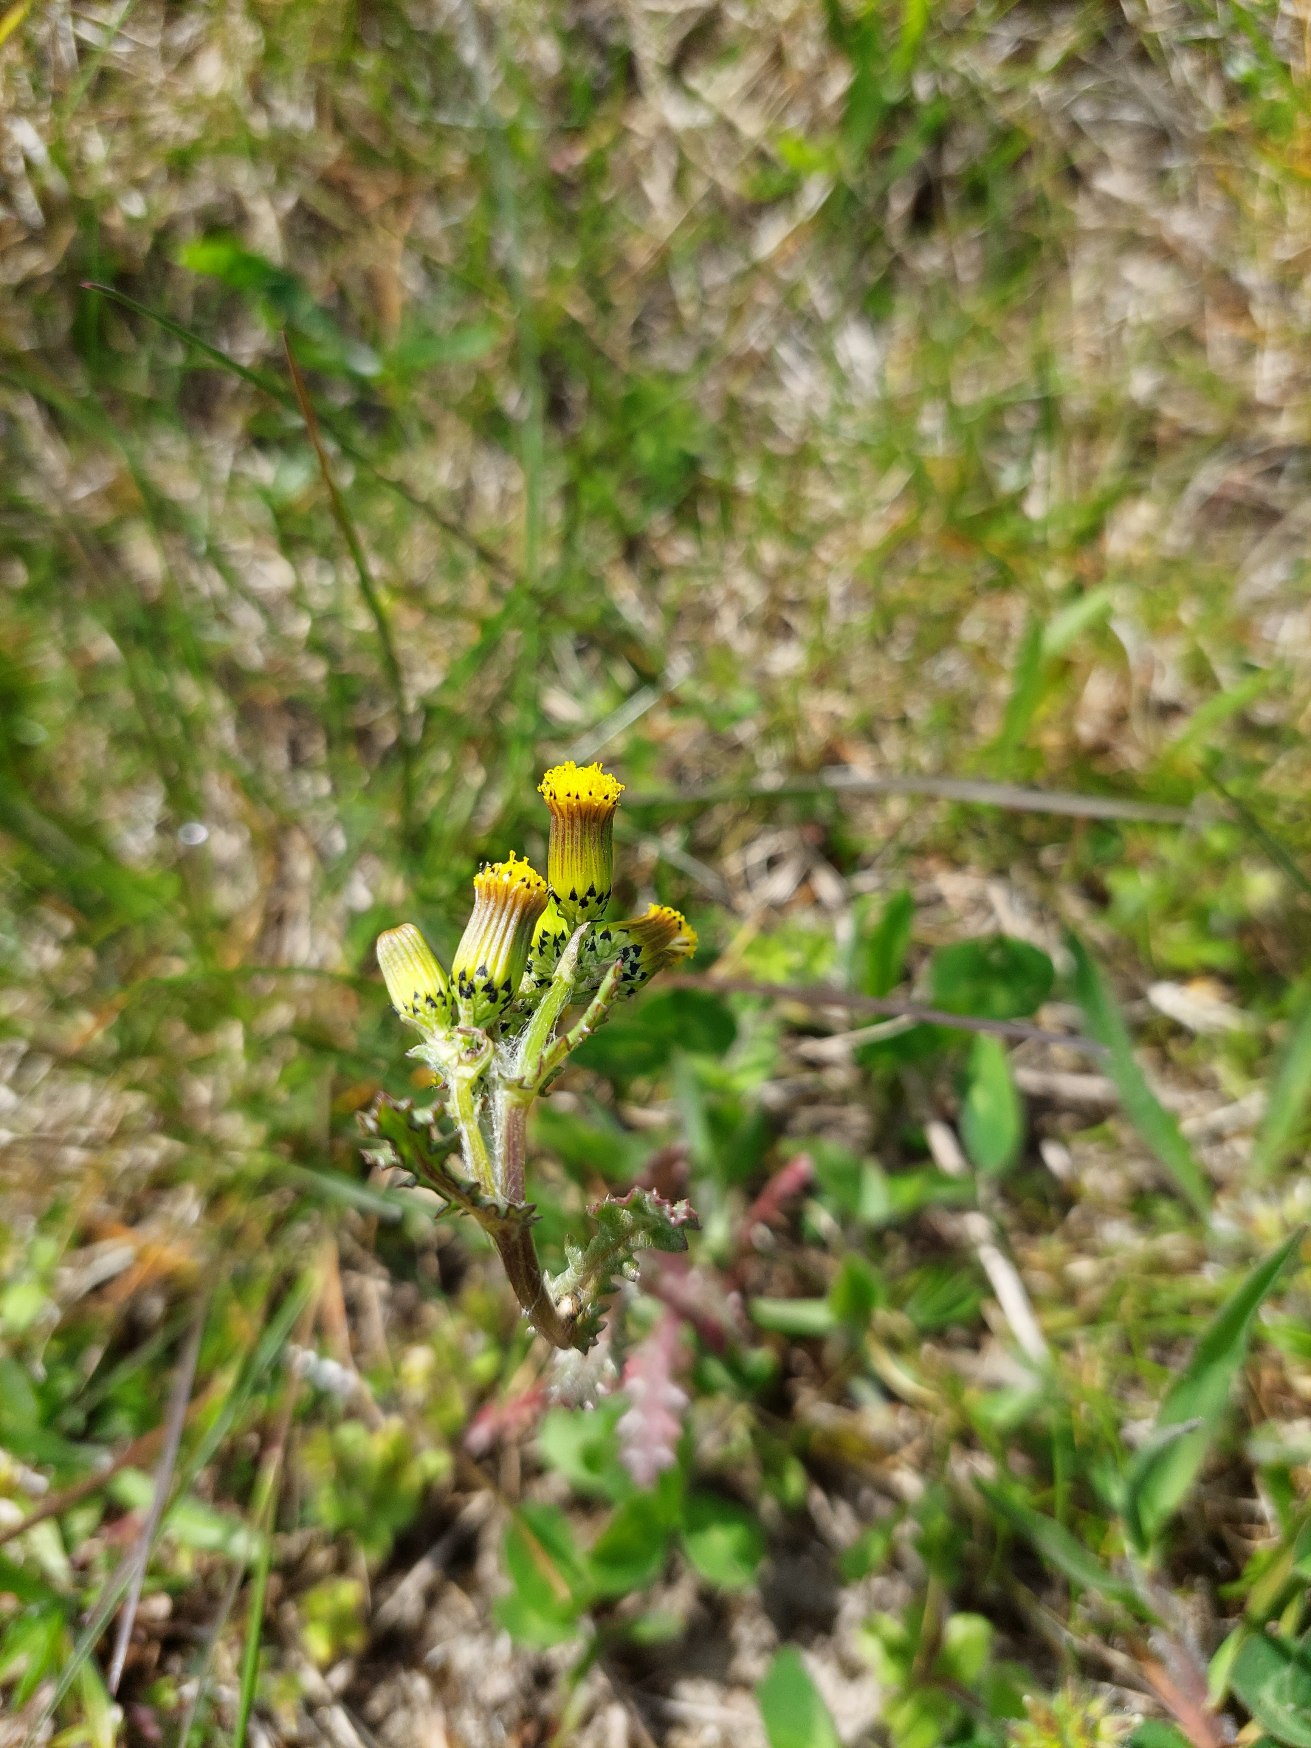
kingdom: Plantae
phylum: Tracheophyta
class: Magnoliopsida
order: Asterales
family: Asteraceae
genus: Senecio
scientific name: Senecio vulgaris
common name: Almindelig brandbæger
